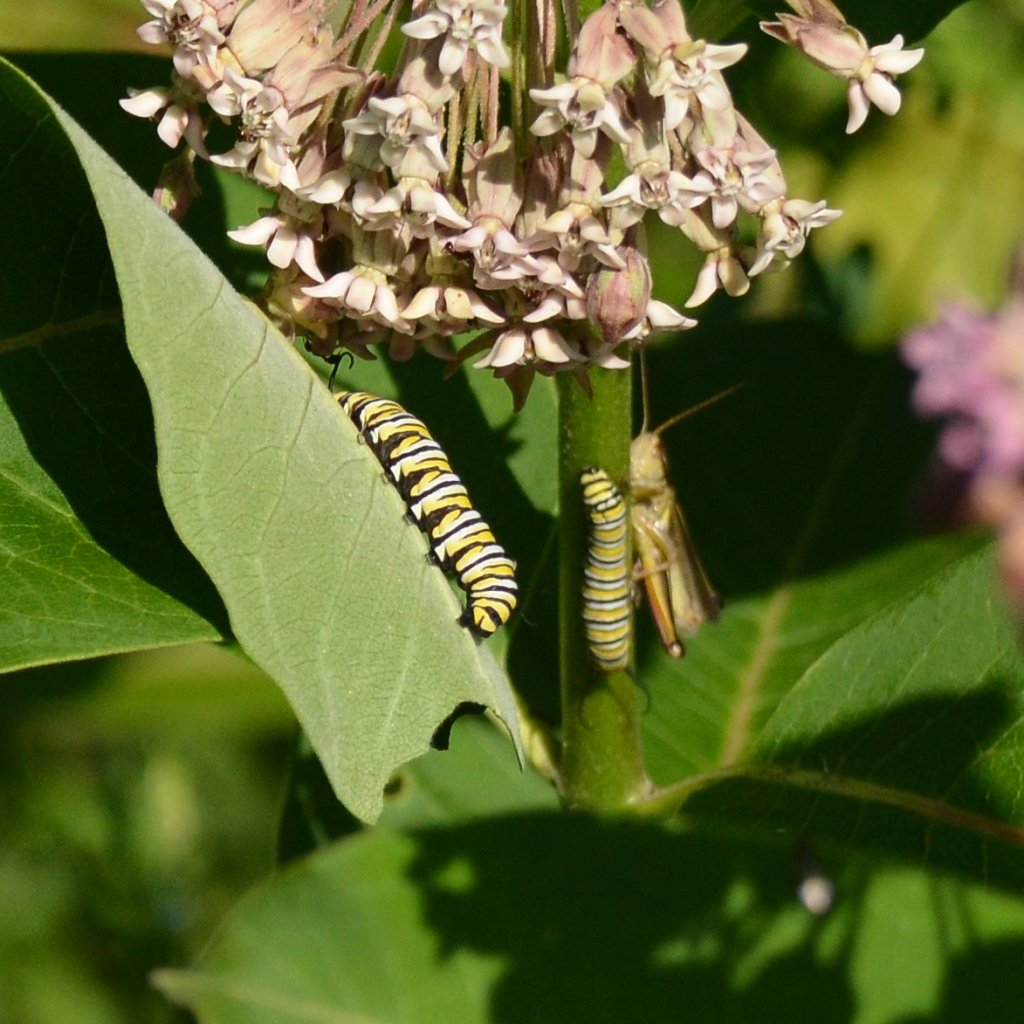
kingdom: Animalia
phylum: Arthropoda
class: Insecta
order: Lepidoptera
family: Nymphalidae
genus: Danaus
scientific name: Danaus plexippus
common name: Monarch
